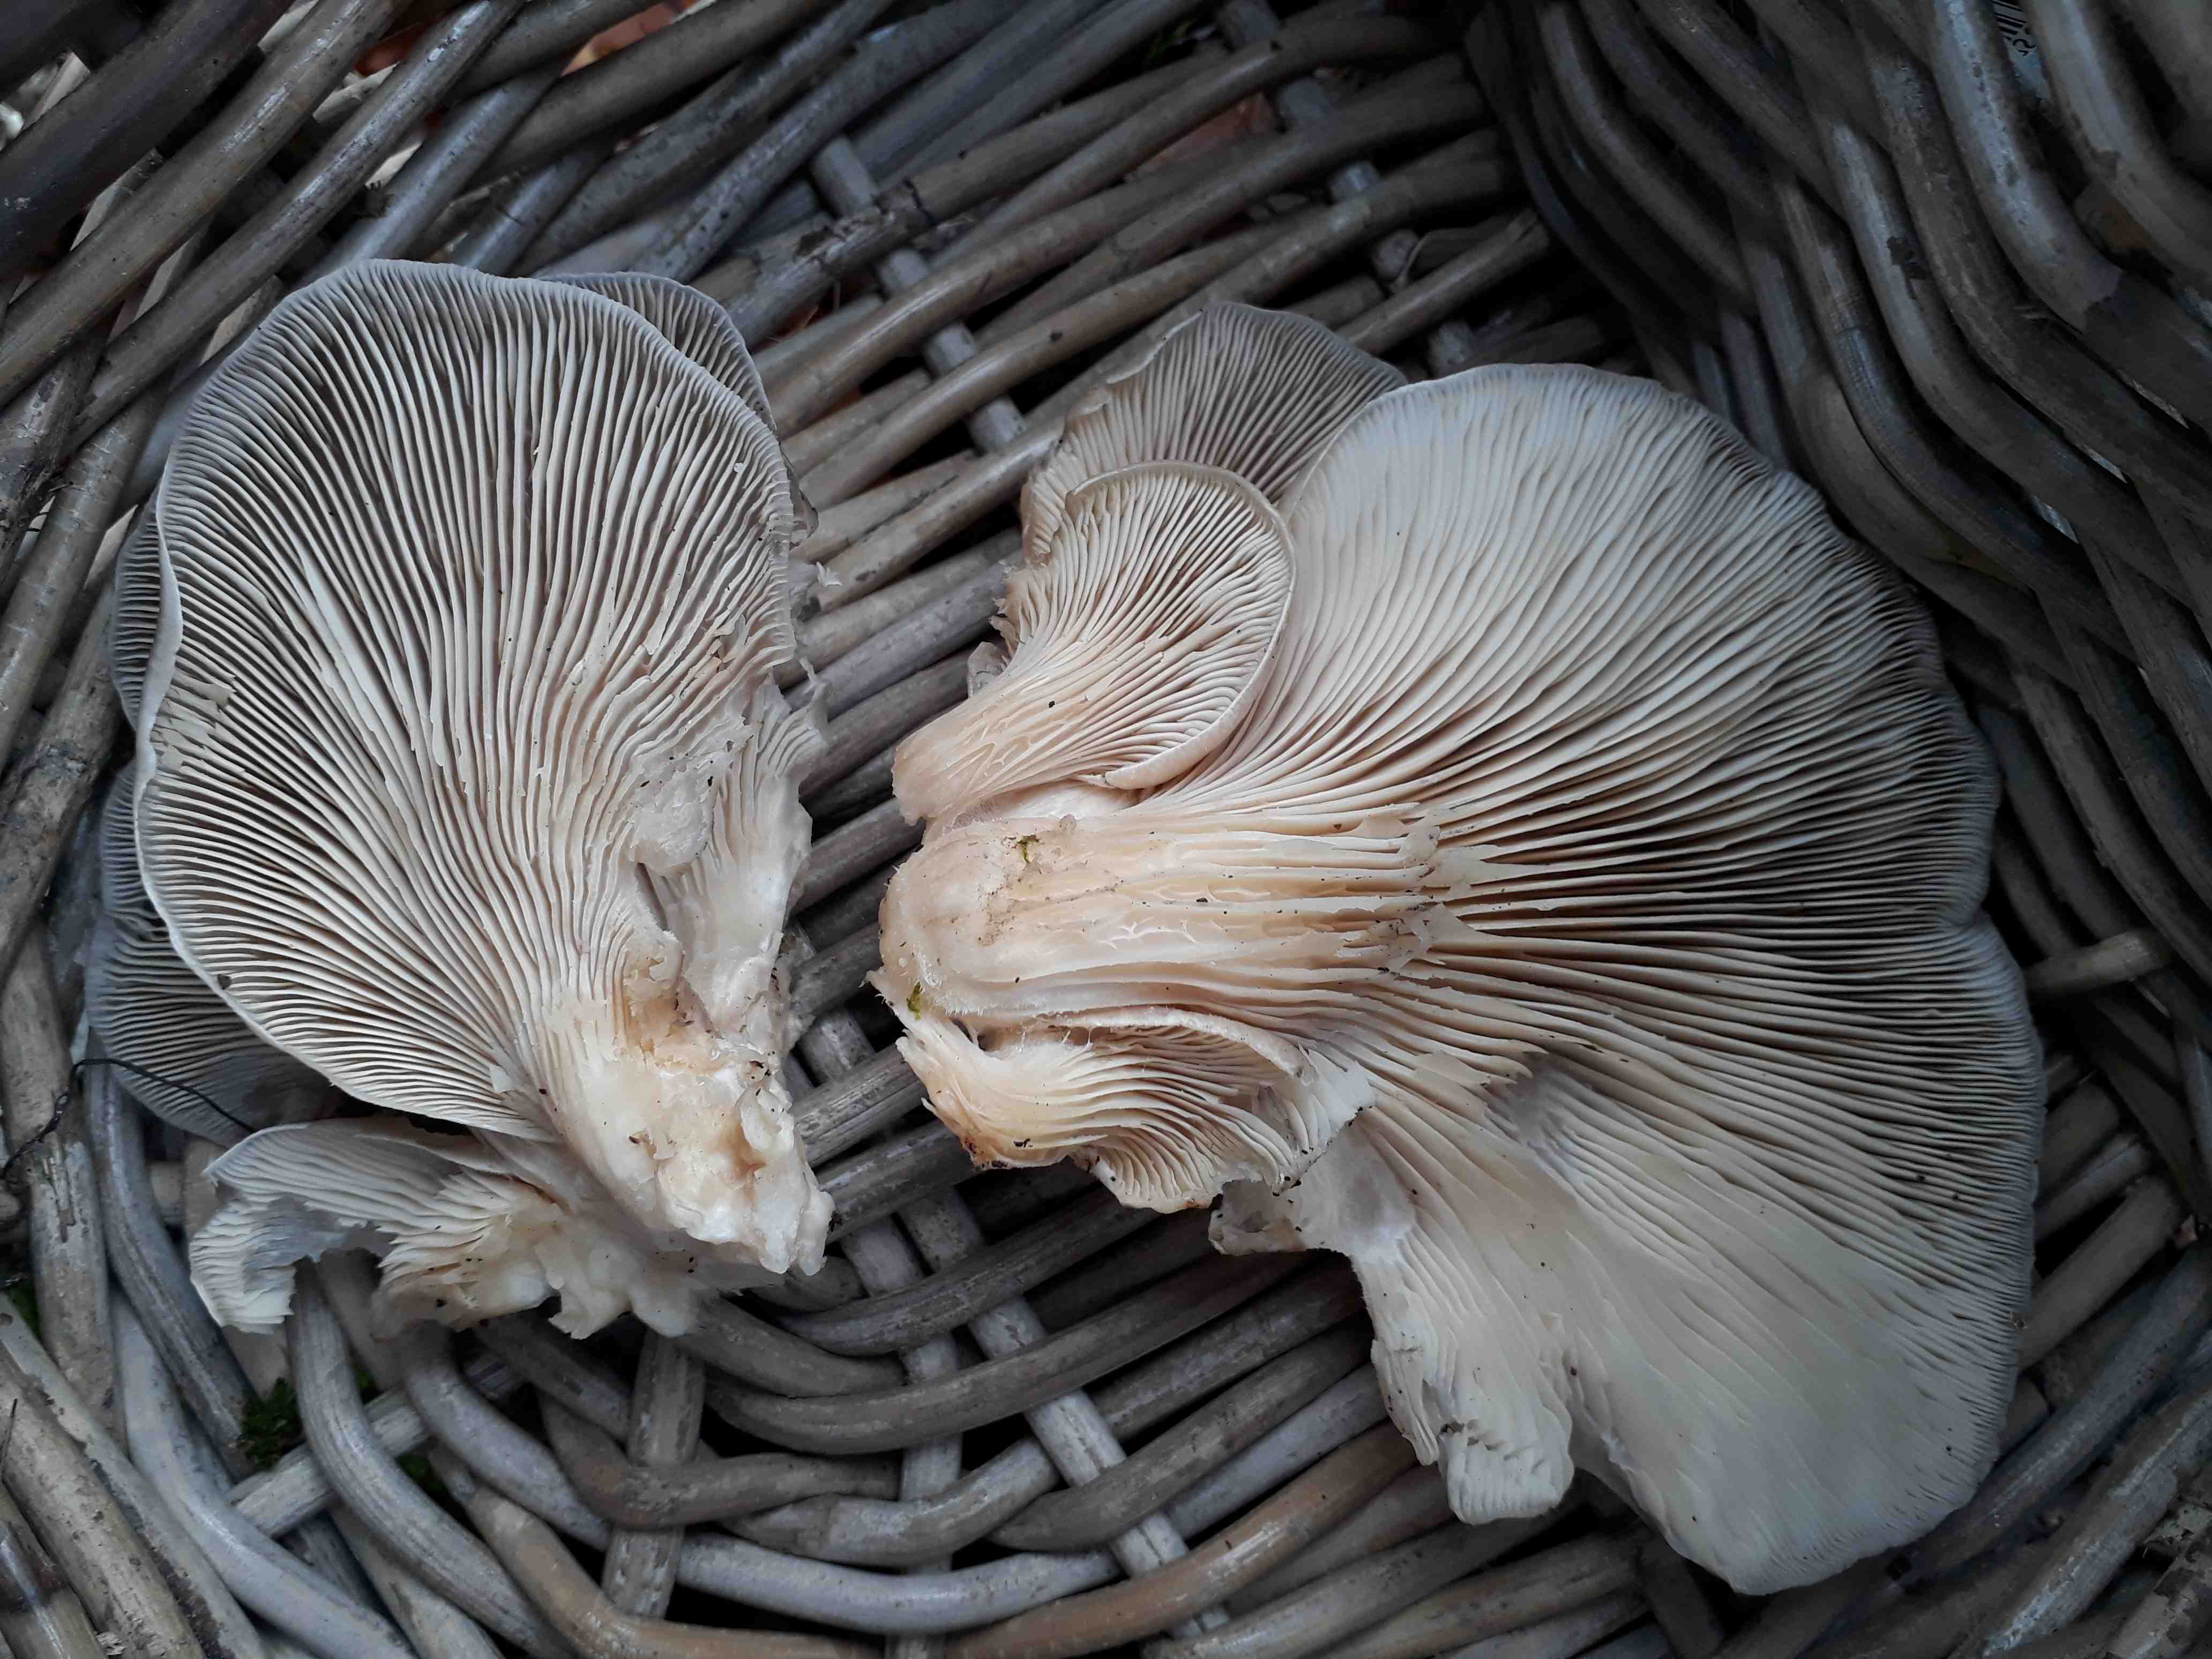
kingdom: Fungi
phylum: Basidiomycota
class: Agaricomycetes
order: Agaricales
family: Pleurotaceae
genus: Pleurotus
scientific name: Pleurotus ostreatus
